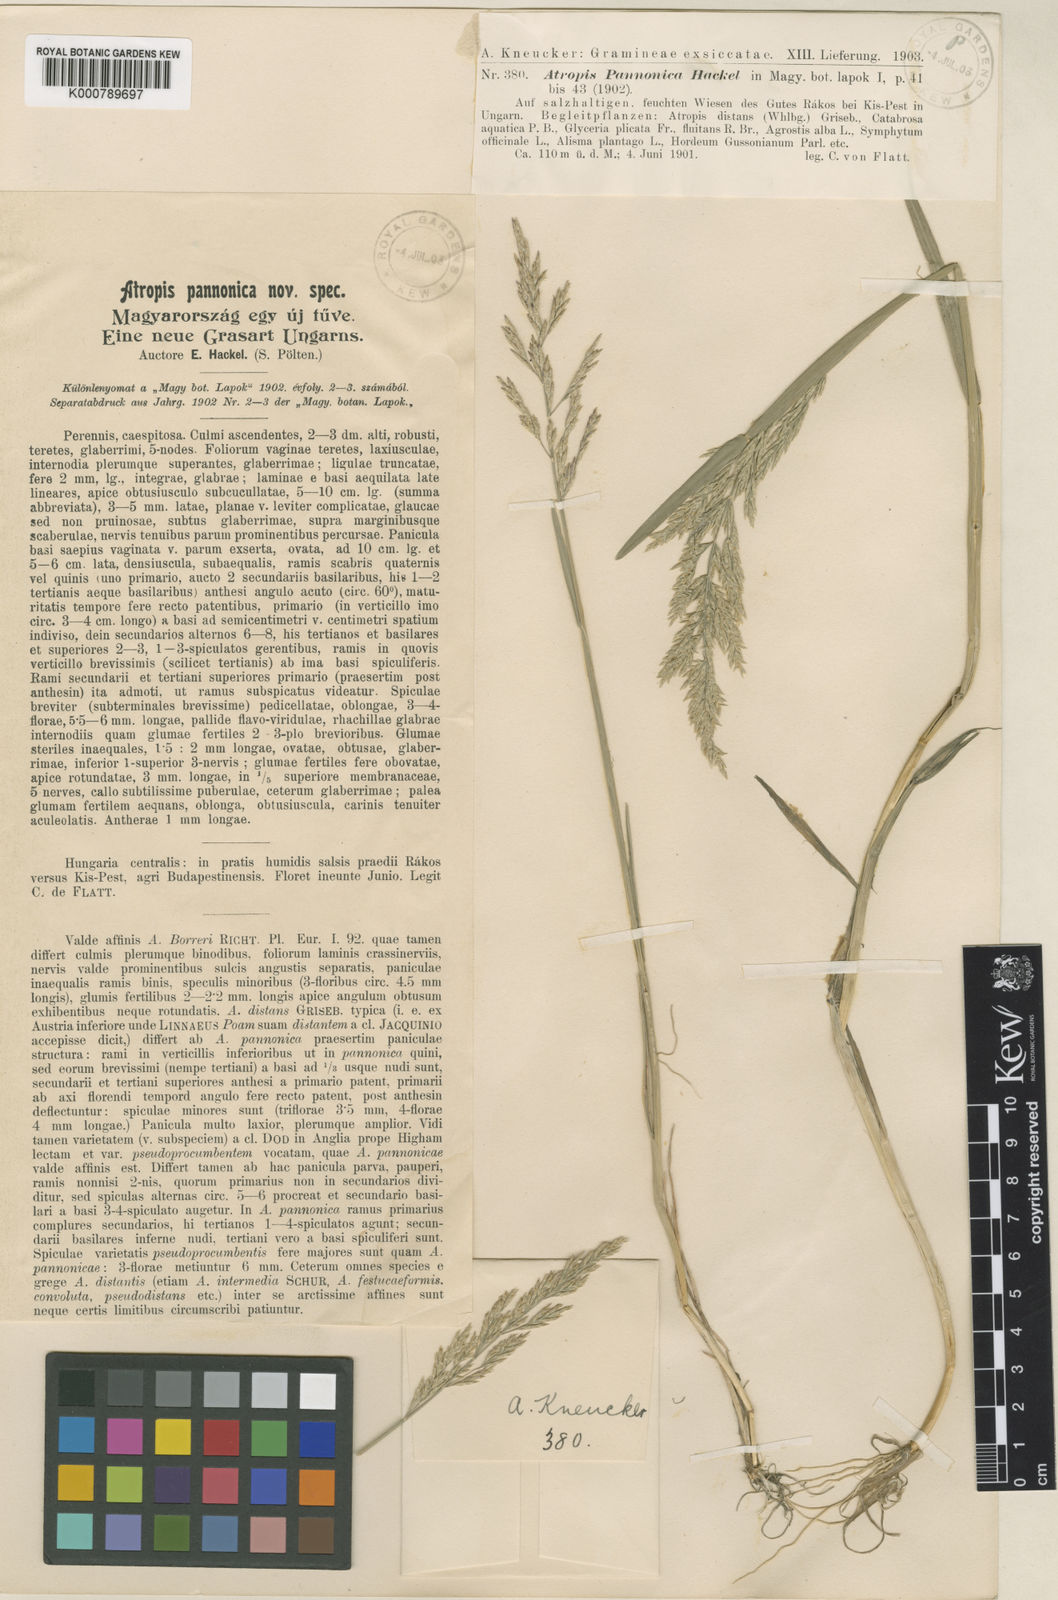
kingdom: Plantae
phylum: Tracheophyta
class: Liliopsida
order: Poales
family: Poaceae
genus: Puccinellia
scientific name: Puccinellia distans
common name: Weeping alkaligrass
